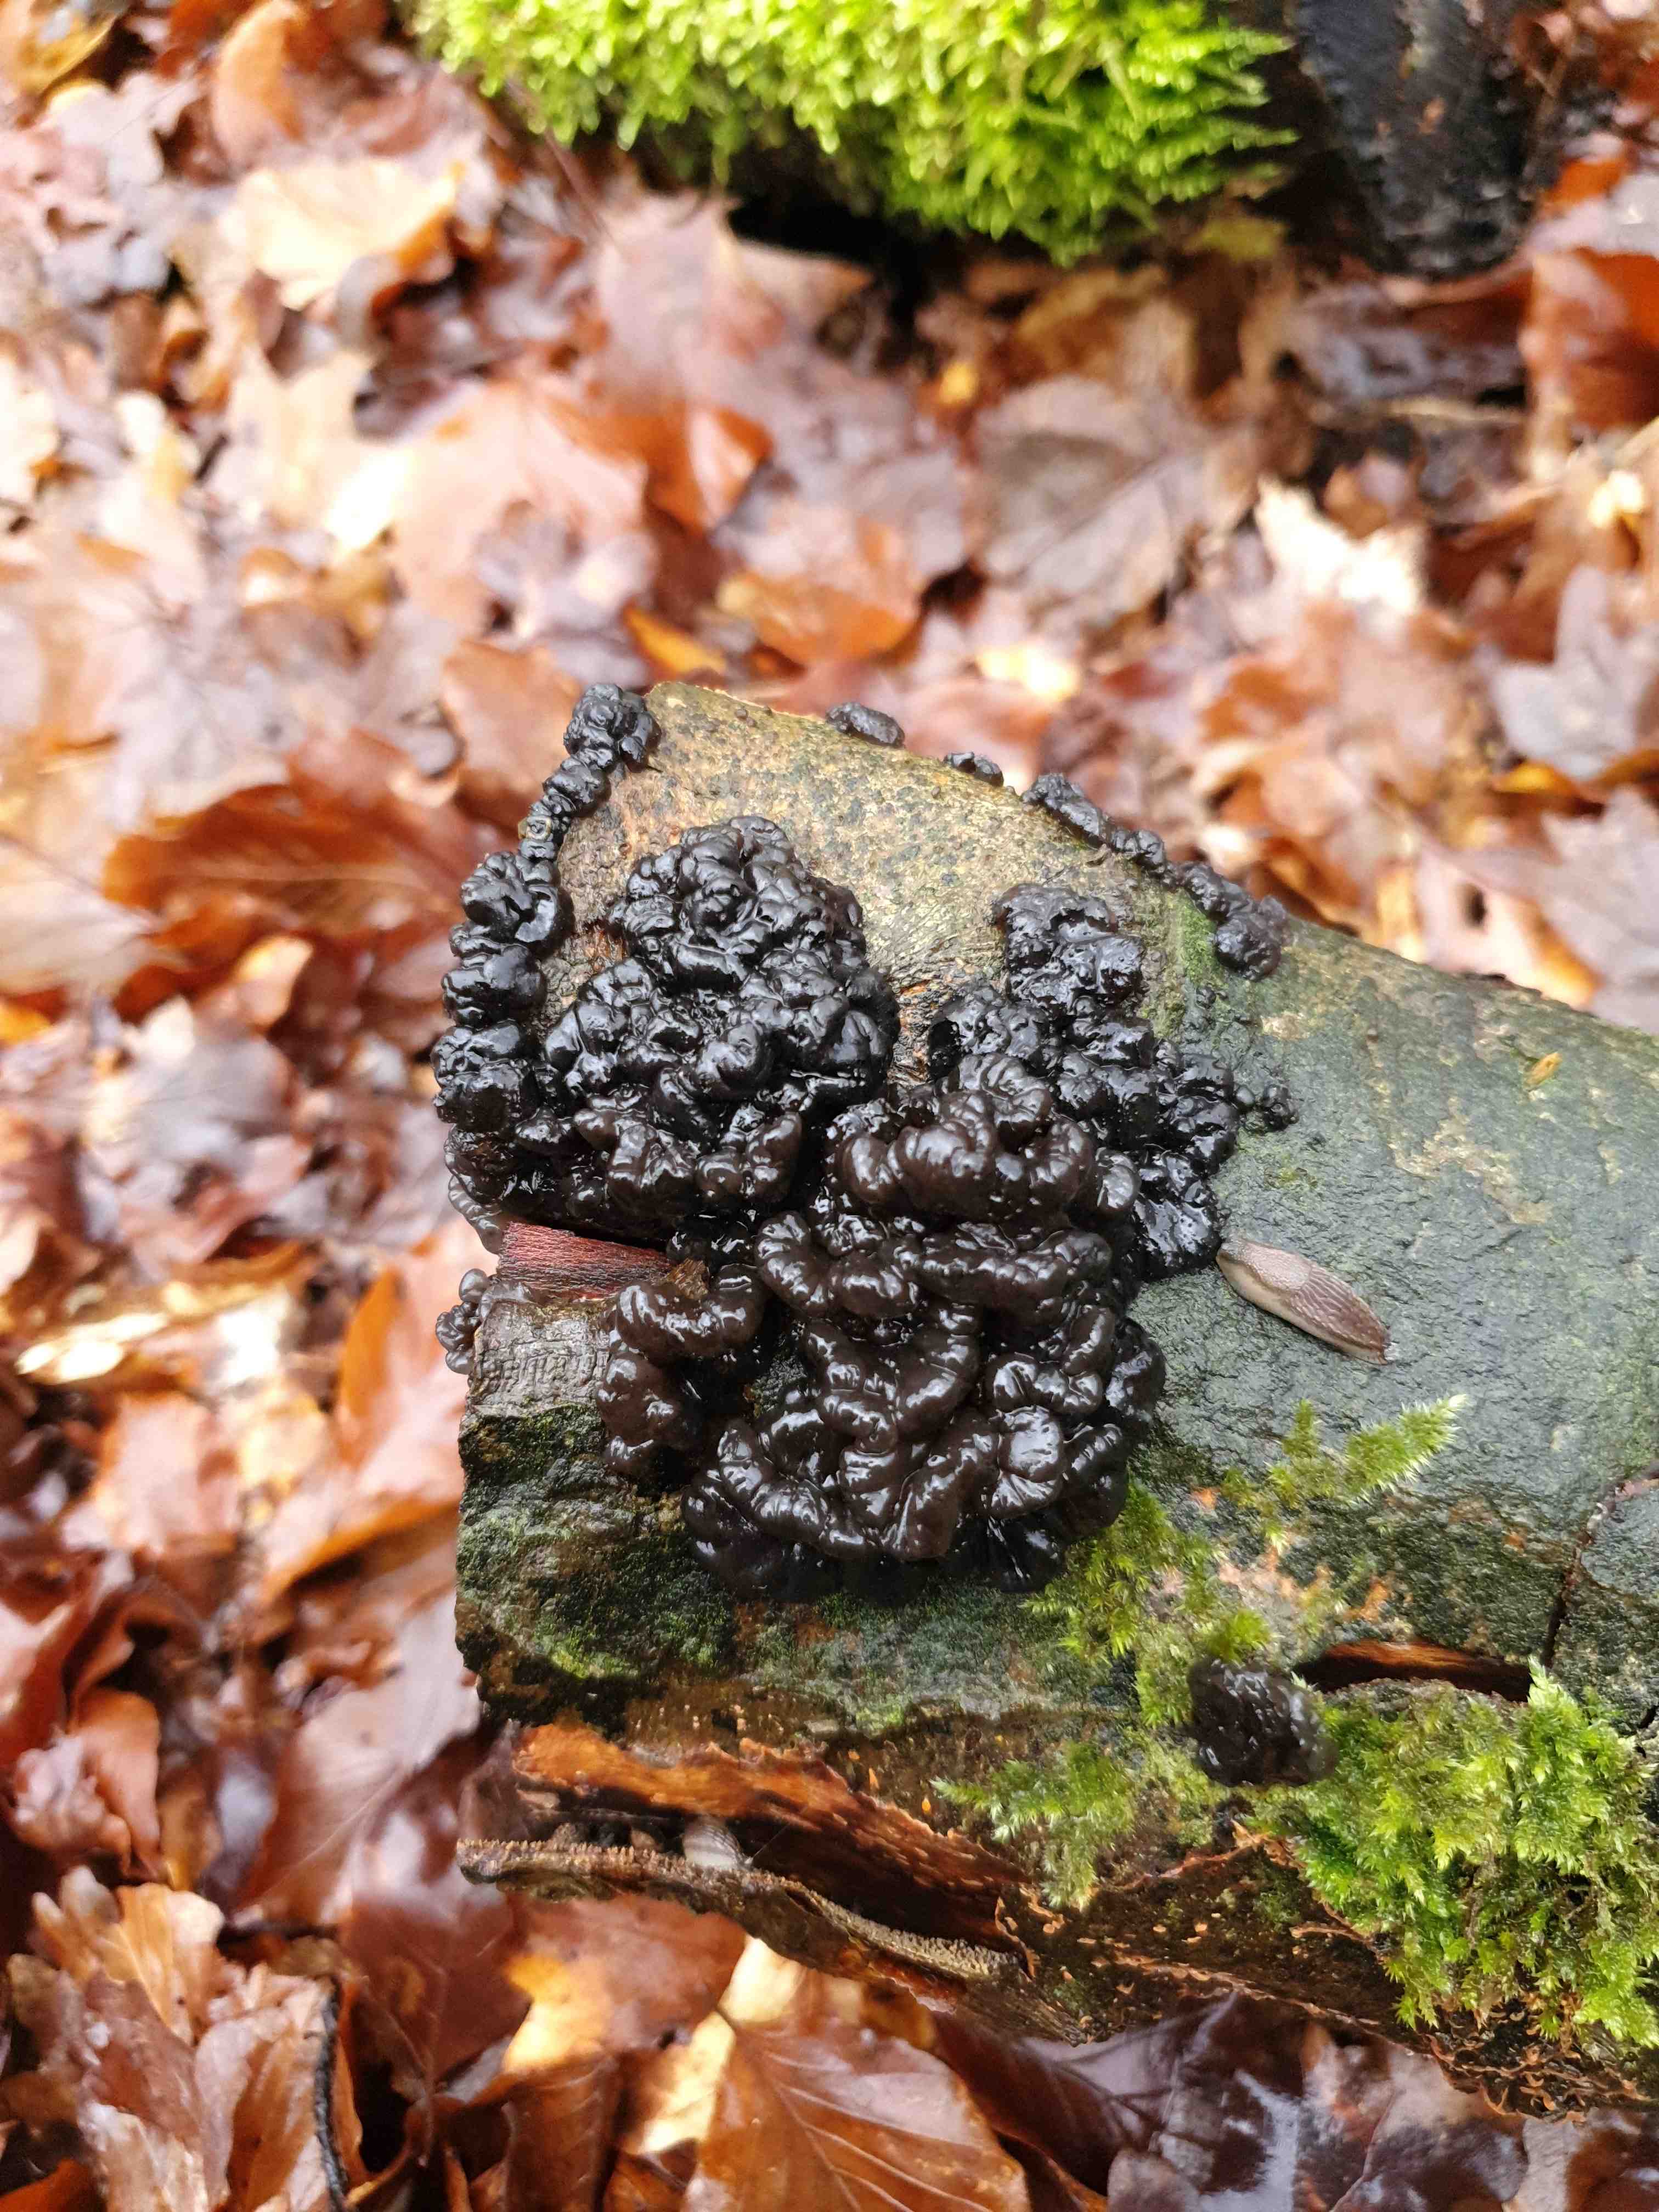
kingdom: Fungi
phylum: Basidiomycota
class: Agaricomycetes
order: Auriculariales
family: Auriculariaceae
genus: Exidia
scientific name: Exidia nigricans
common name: almindelig bævretop
